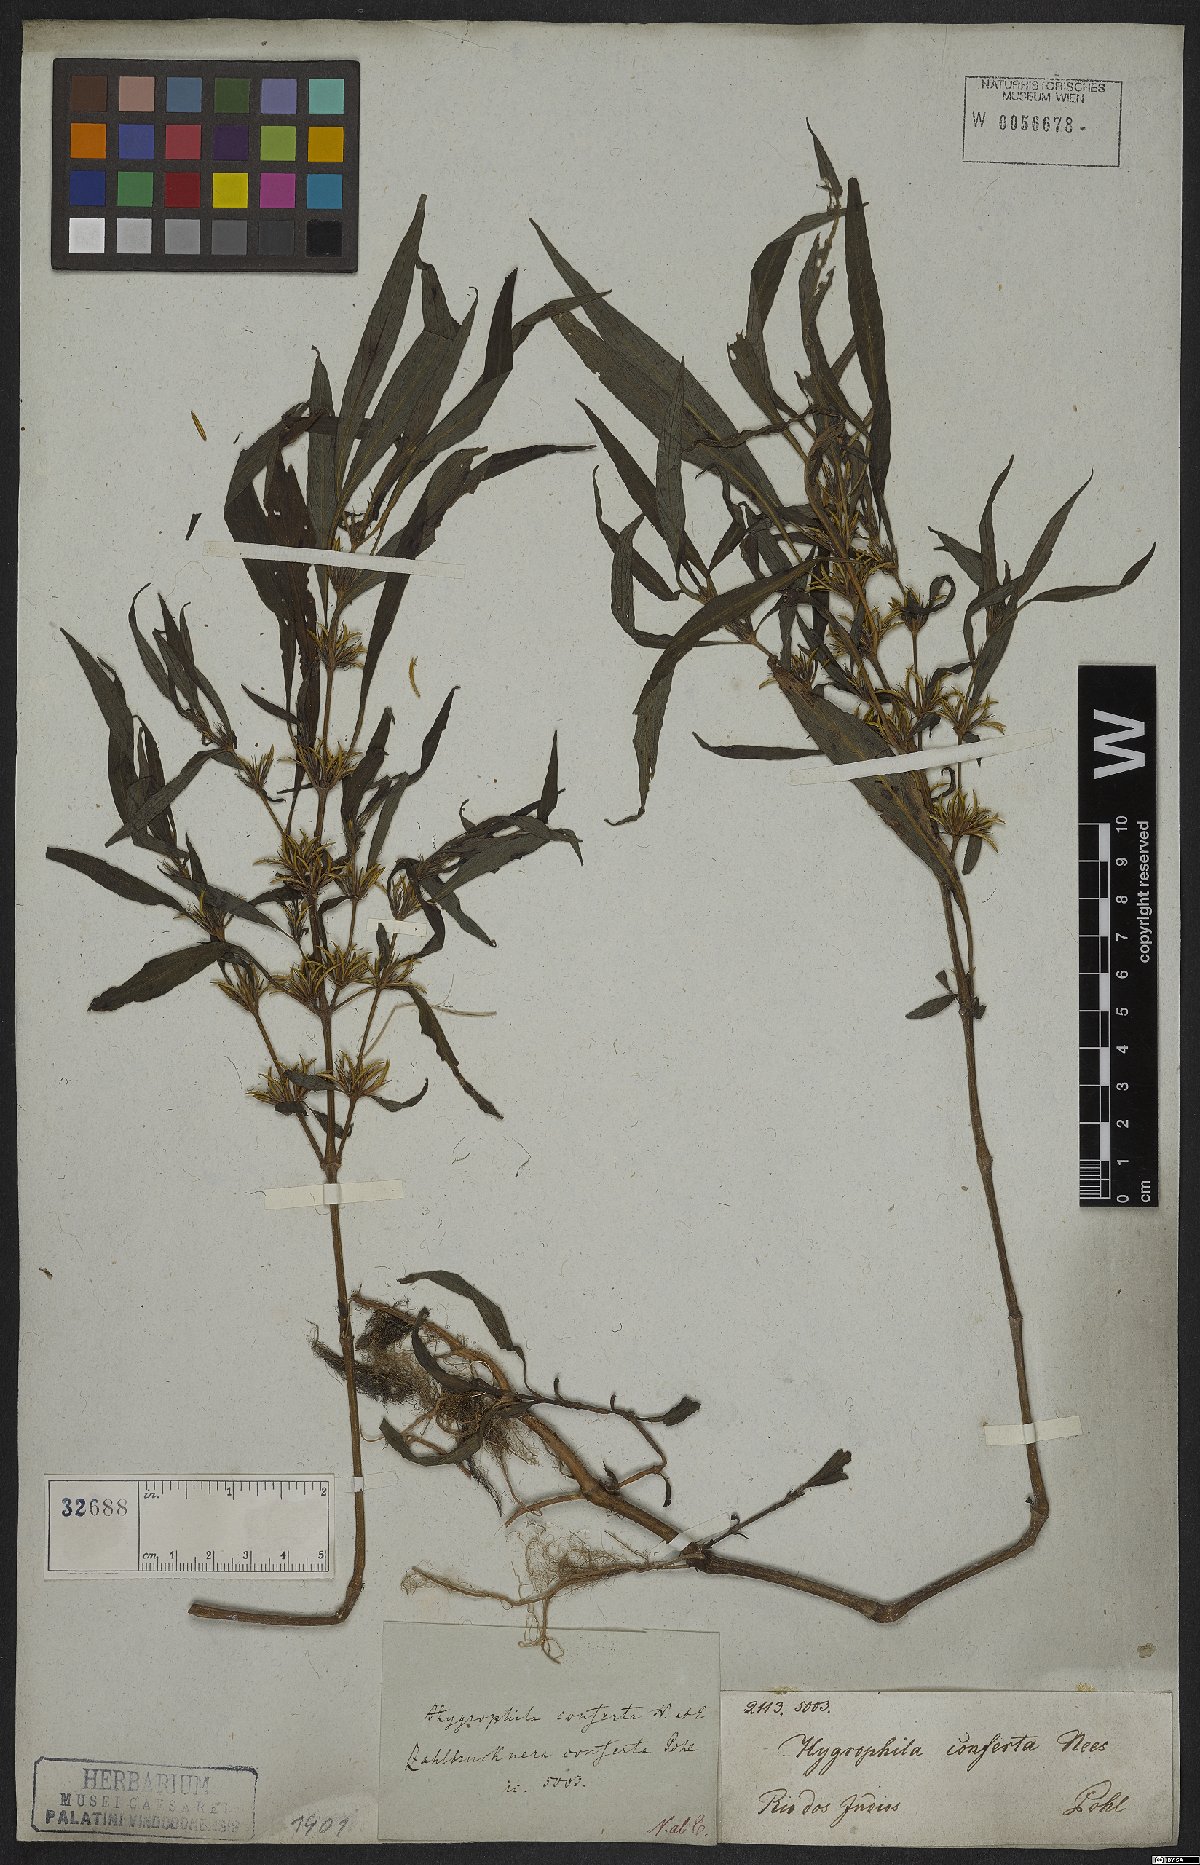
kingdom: Plantae
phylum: Tracheophyta
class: Magnoliopsida
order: Lamiales
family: Acanthaceae
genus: Hygrophila
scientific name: Hygrophila costata
